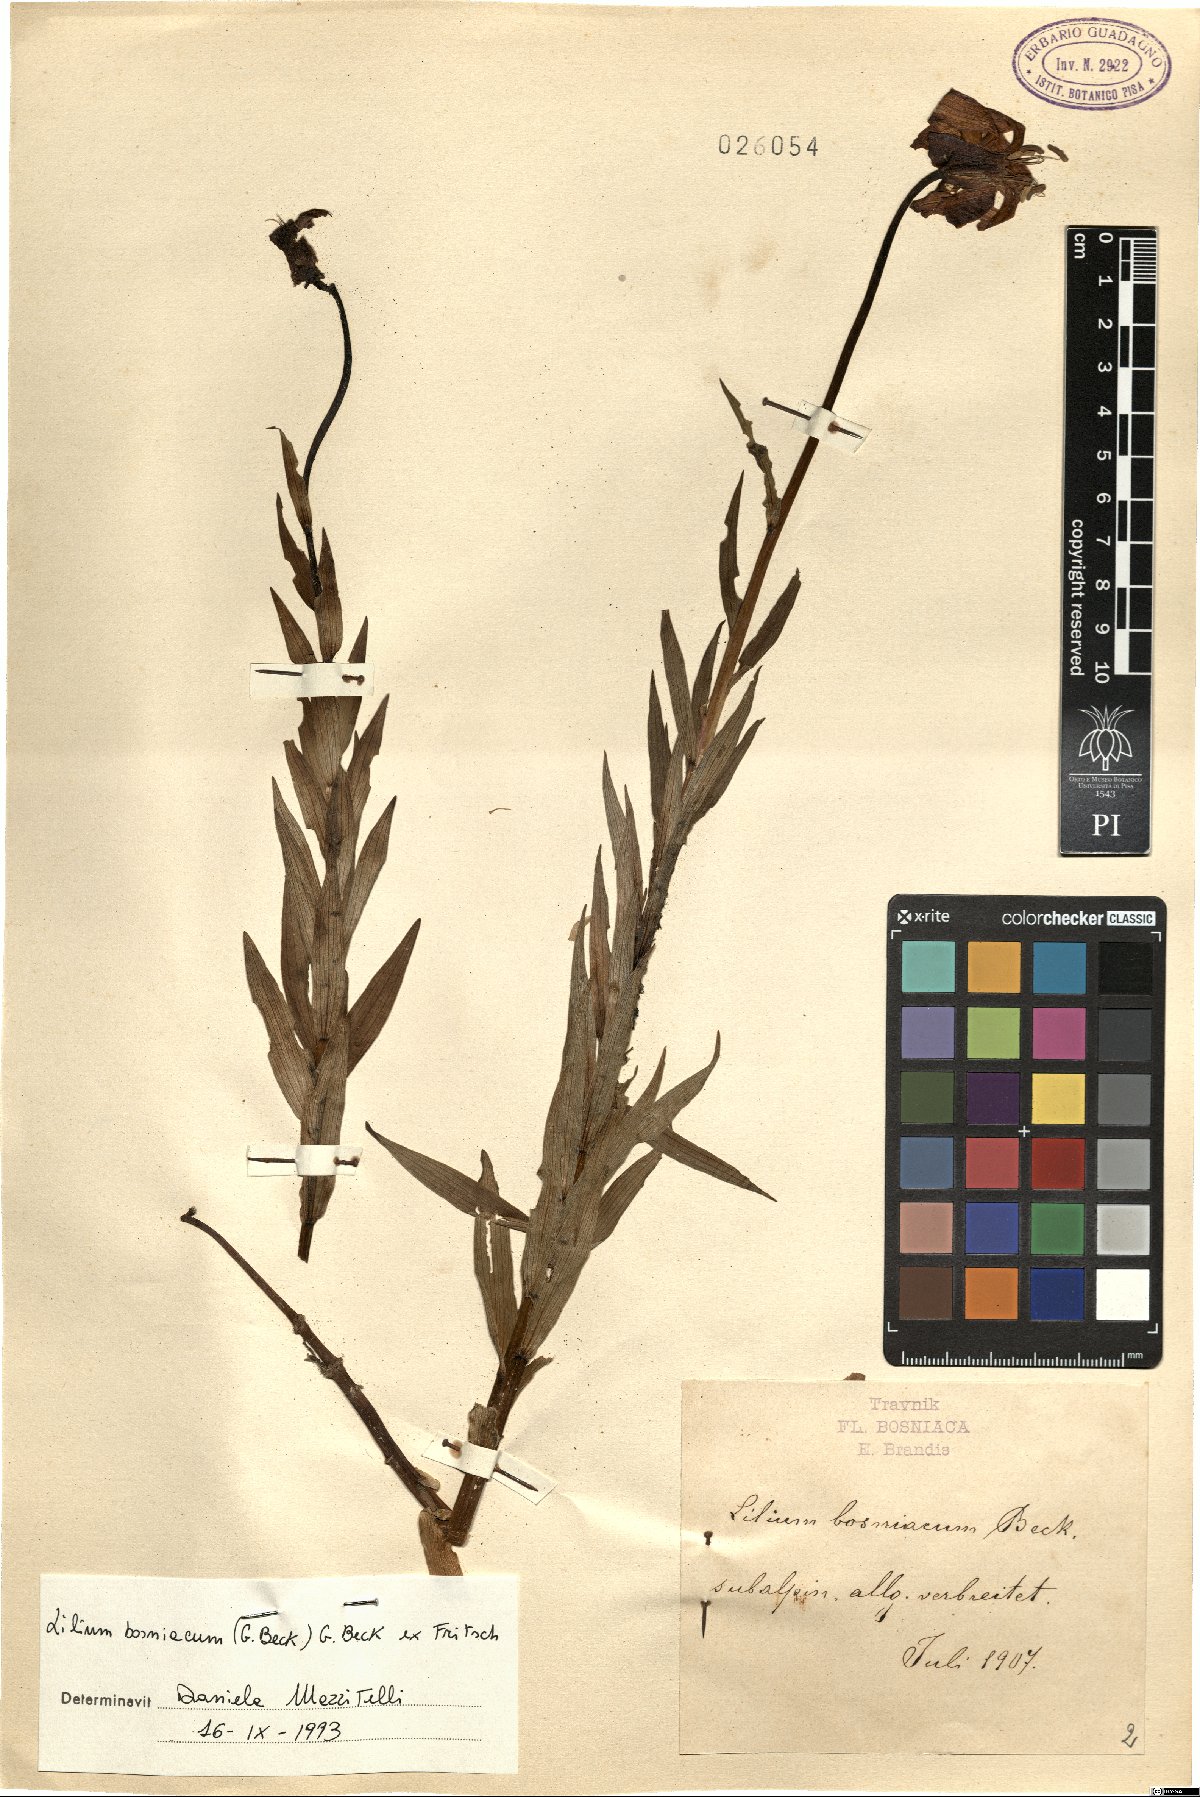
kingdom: Plantae
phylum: Tracheophyta
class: Liliopsida
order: Liliales
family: Liliaceae
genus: Lilium
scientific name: Lilium bosniacum
